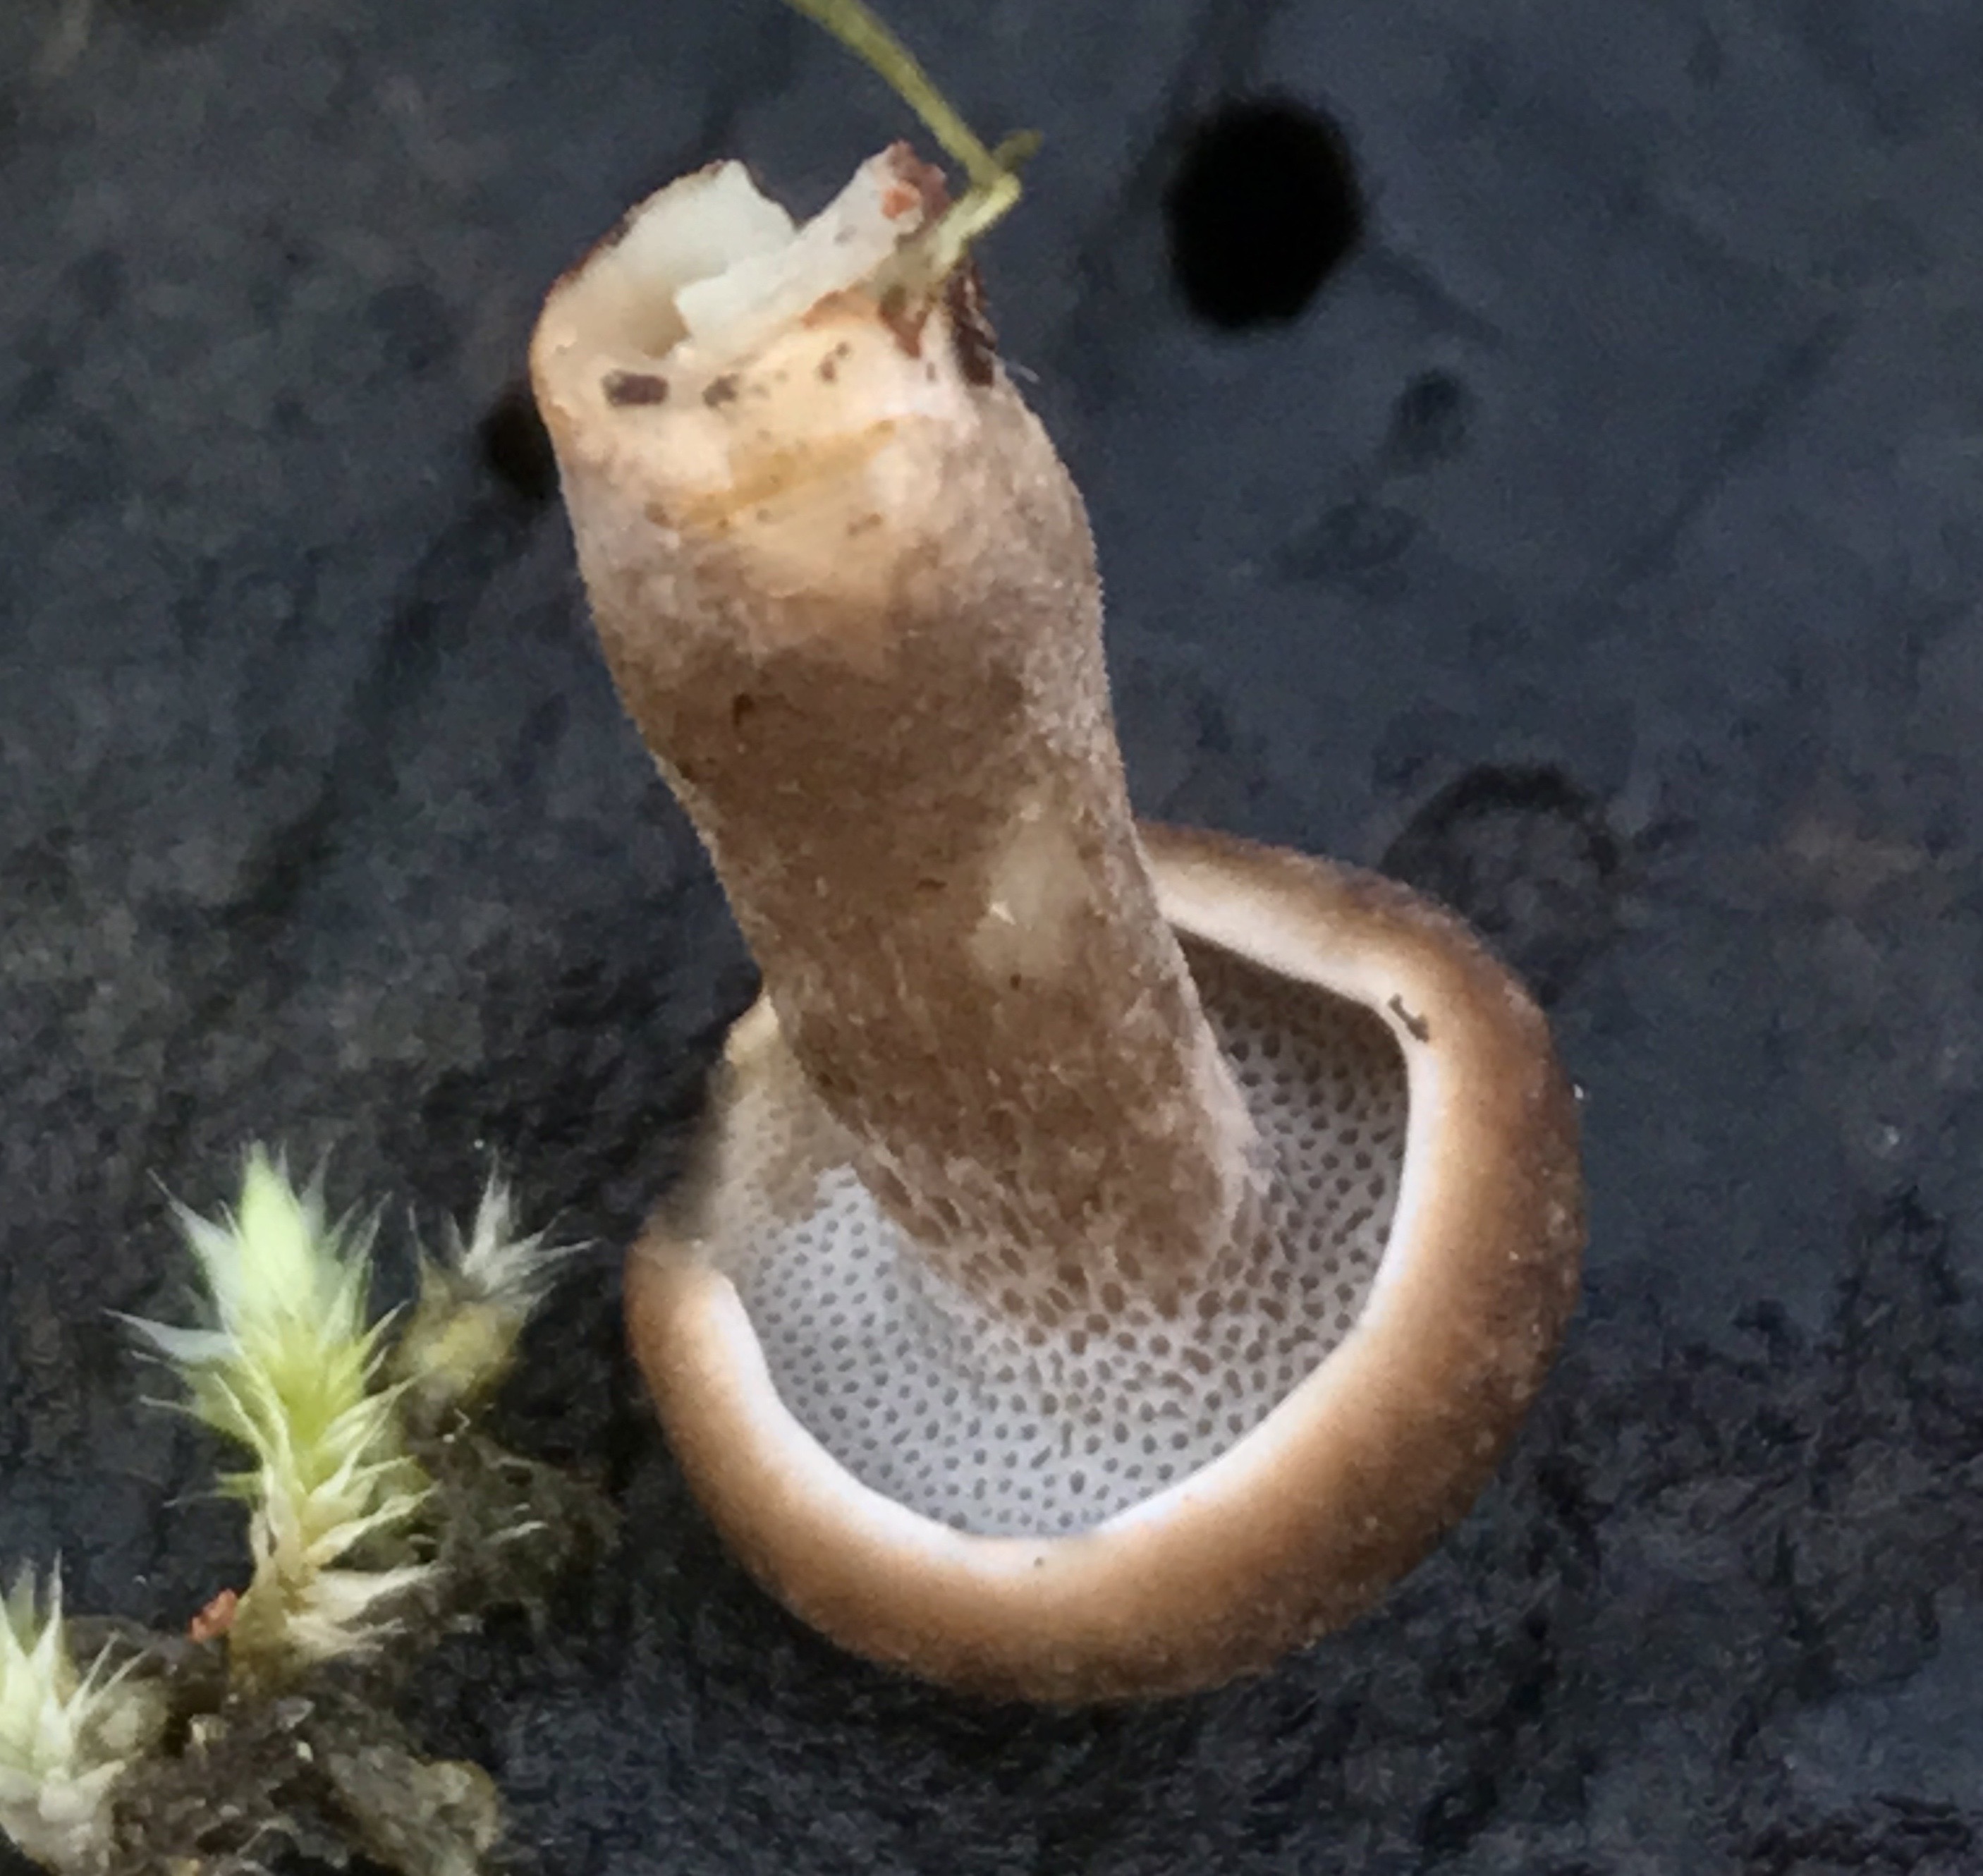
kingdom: Fungi
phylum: Basidiomycota
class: Agaricomycetes
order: Polyporales
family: Polyporaceae
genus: Lentinus
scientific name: Lentinus brumalis
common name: vinter-stilkporesvamp
